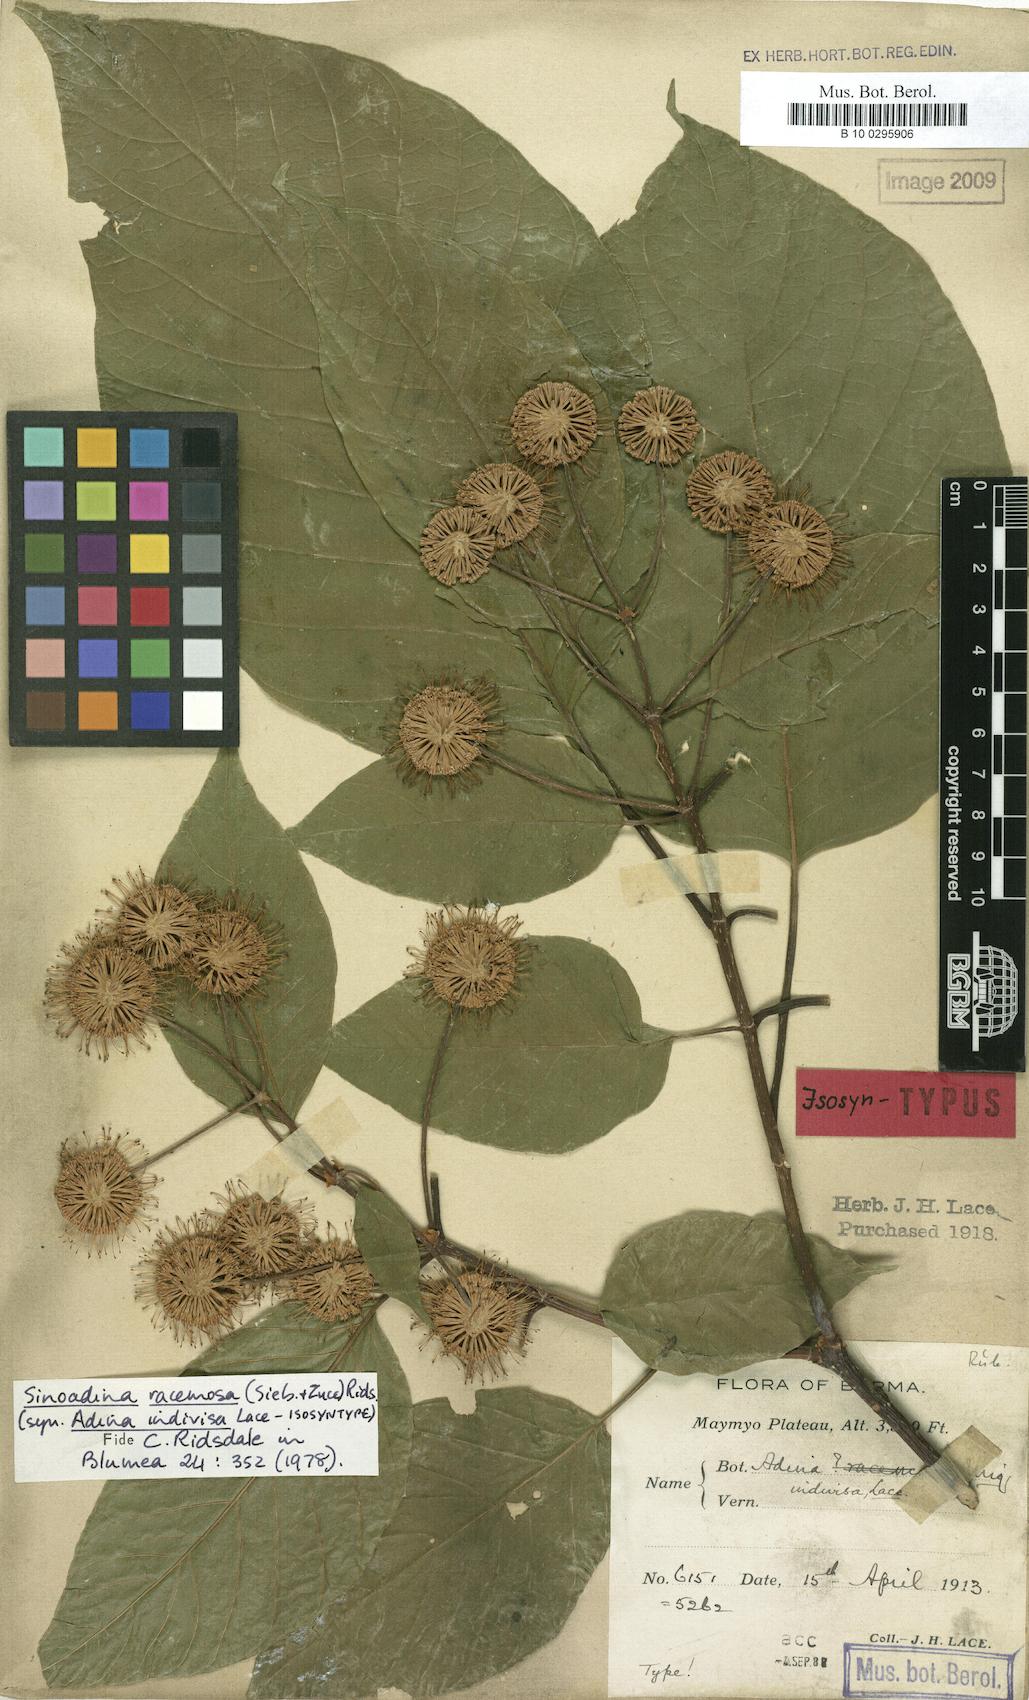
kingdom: Plantae
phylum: Tracheophyta
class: Magnoliopsida
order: Gentianales
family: Rubiaceae
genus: Adina
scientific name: Adina racemosa
